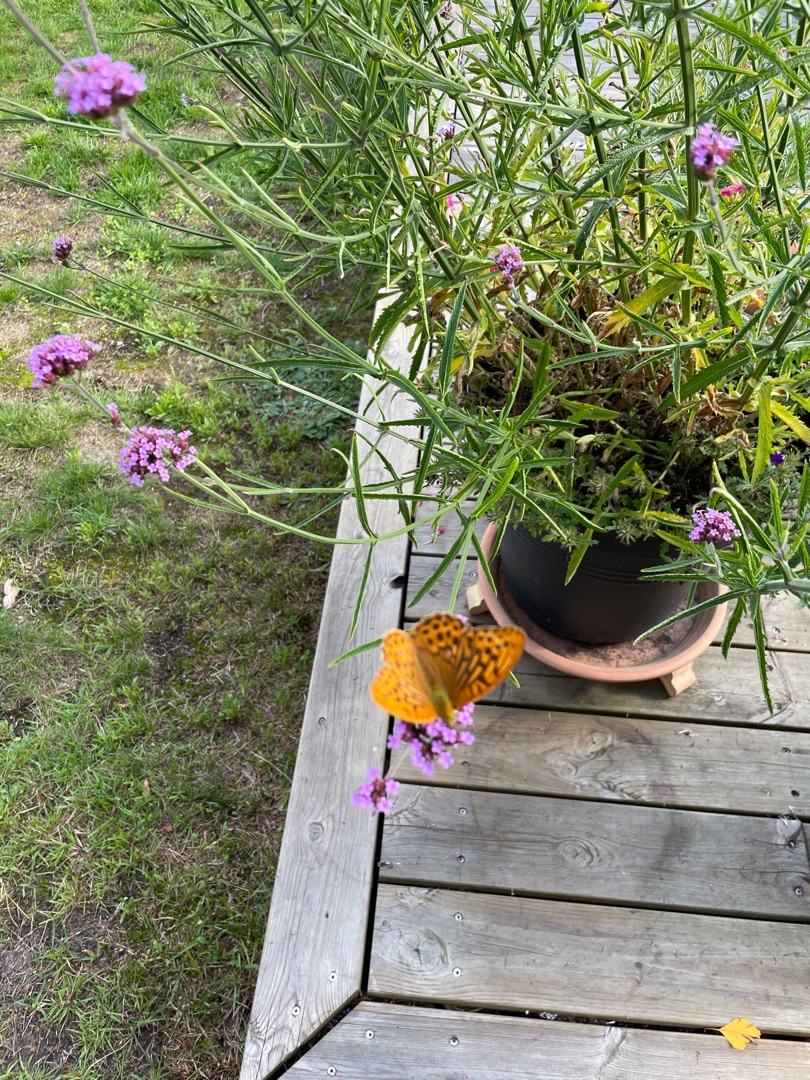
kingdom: Animalia
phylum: Arthropoda
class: Insecta
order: Lepidoptera
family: Nymphalidae
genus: Argynnis
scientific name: Argynnis paphia
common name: Kejserkåbe
